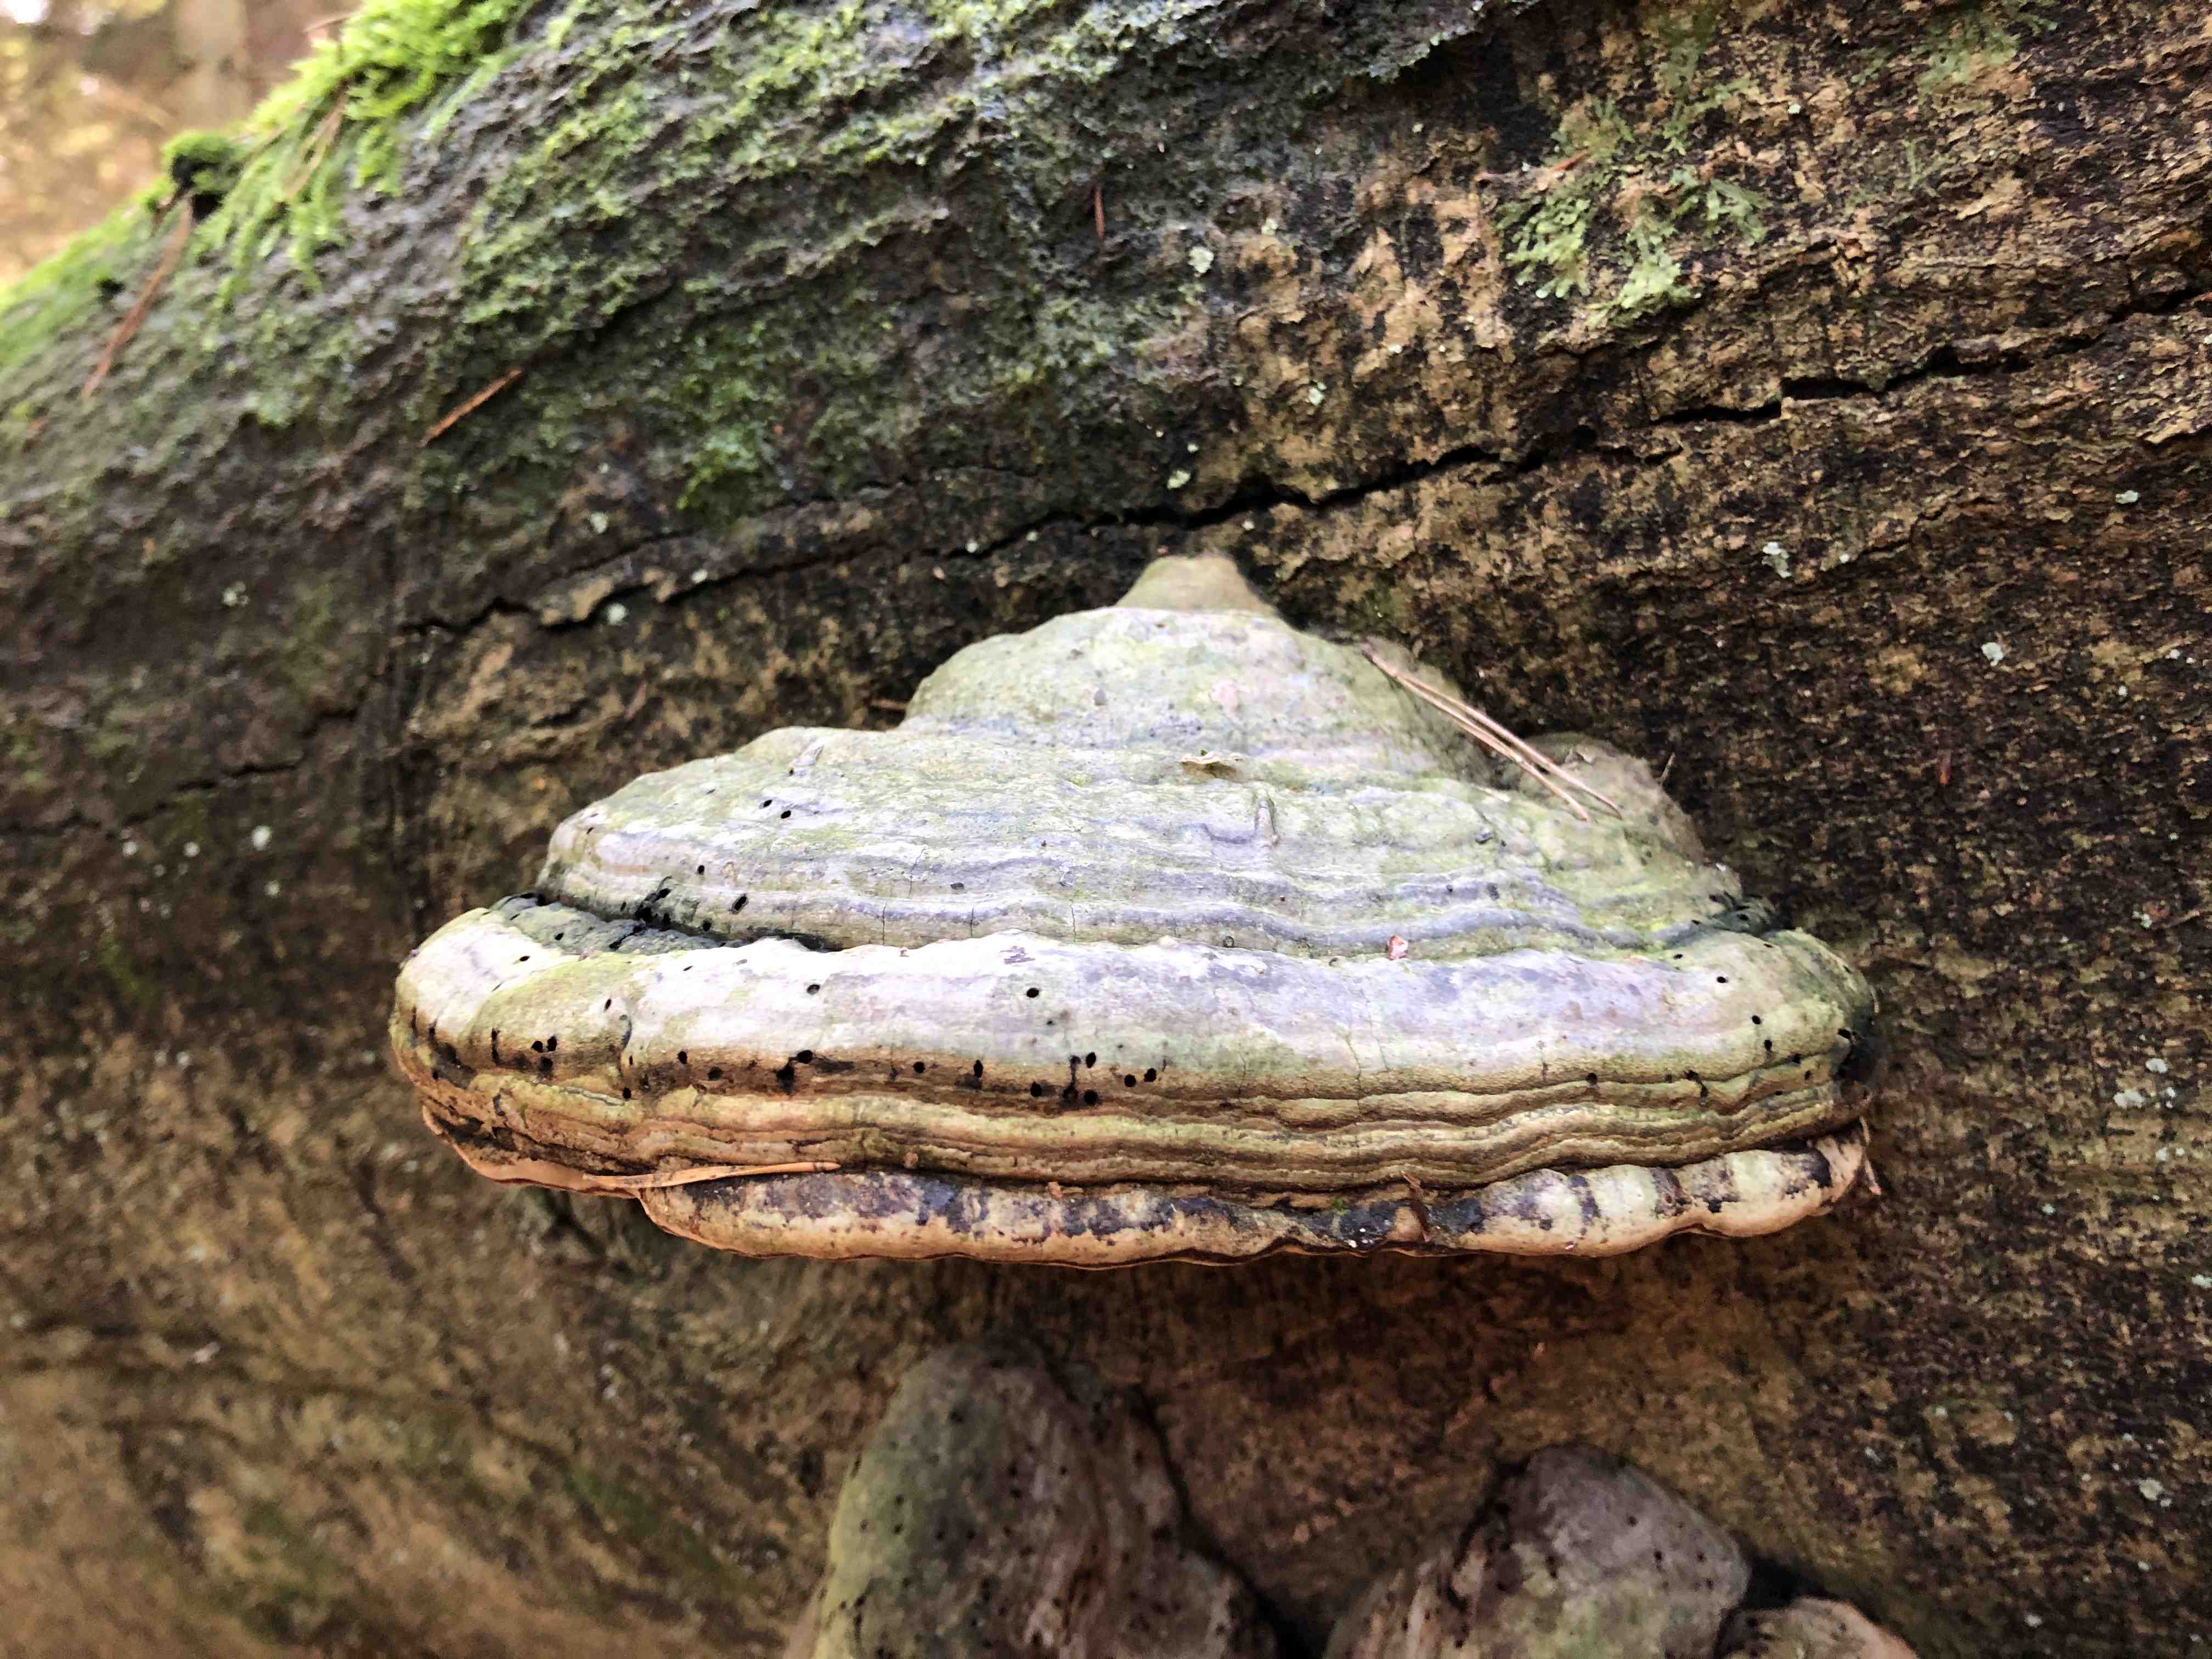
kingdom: Fungi
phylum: Basidiomycota
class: Agaricomycetes
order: Polyporales
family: Polyporaceae
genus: Fomes
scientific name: Fomes fomentarius
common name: tøndersvamp
